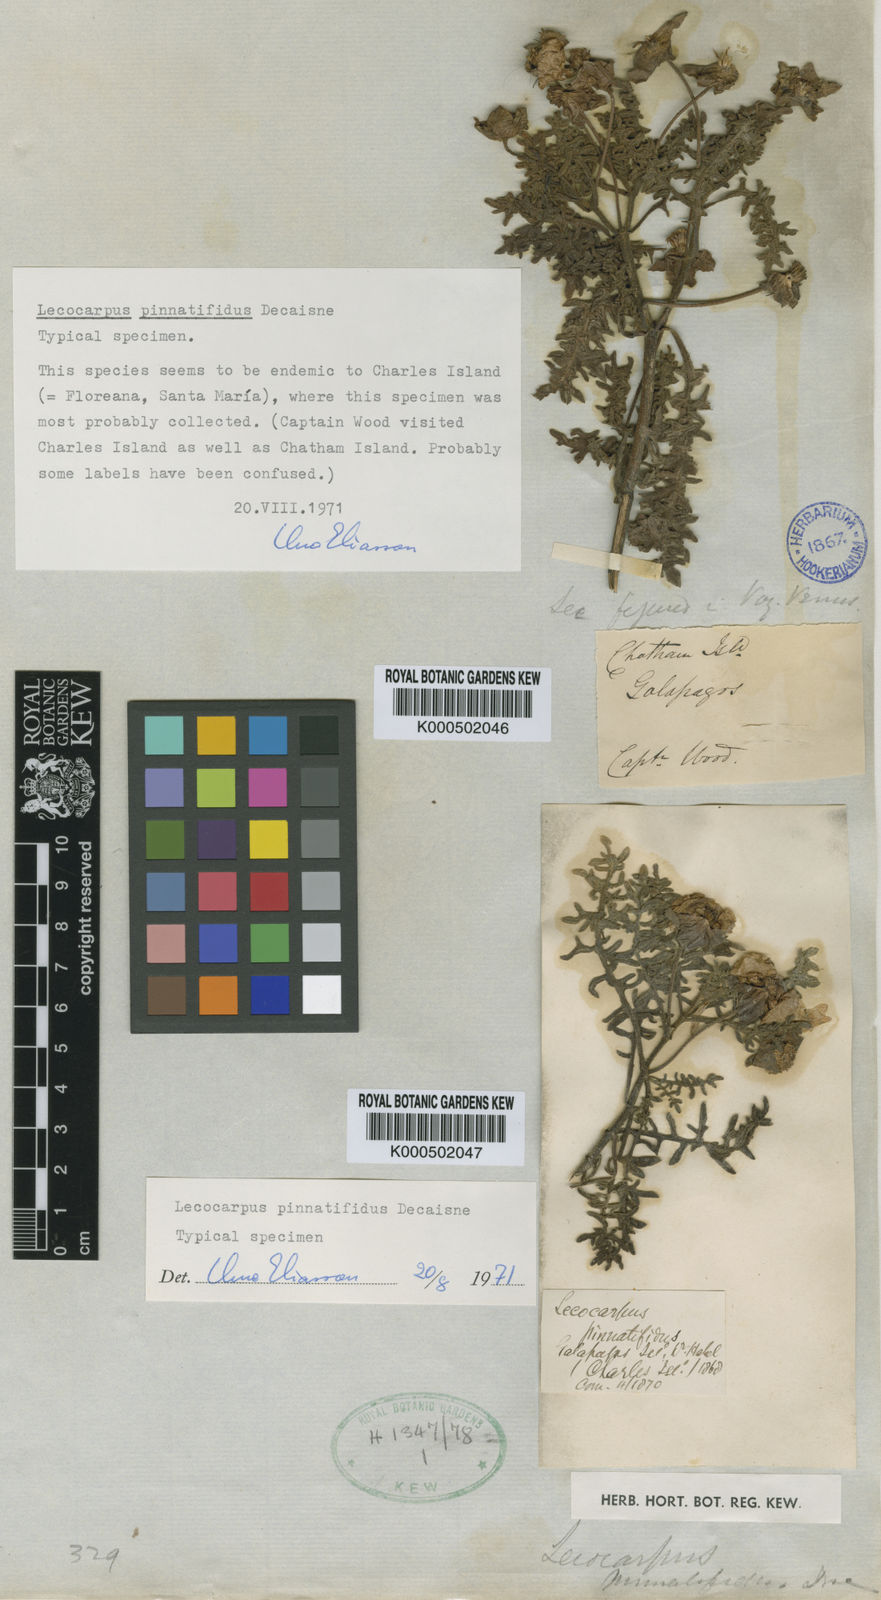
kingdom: Plantae
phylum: Tracheophyta
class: Magnoliopsida
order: Asterales
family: Asteraceae
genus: Lecocarpus
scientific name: Lecocarpus pinnatifidus
